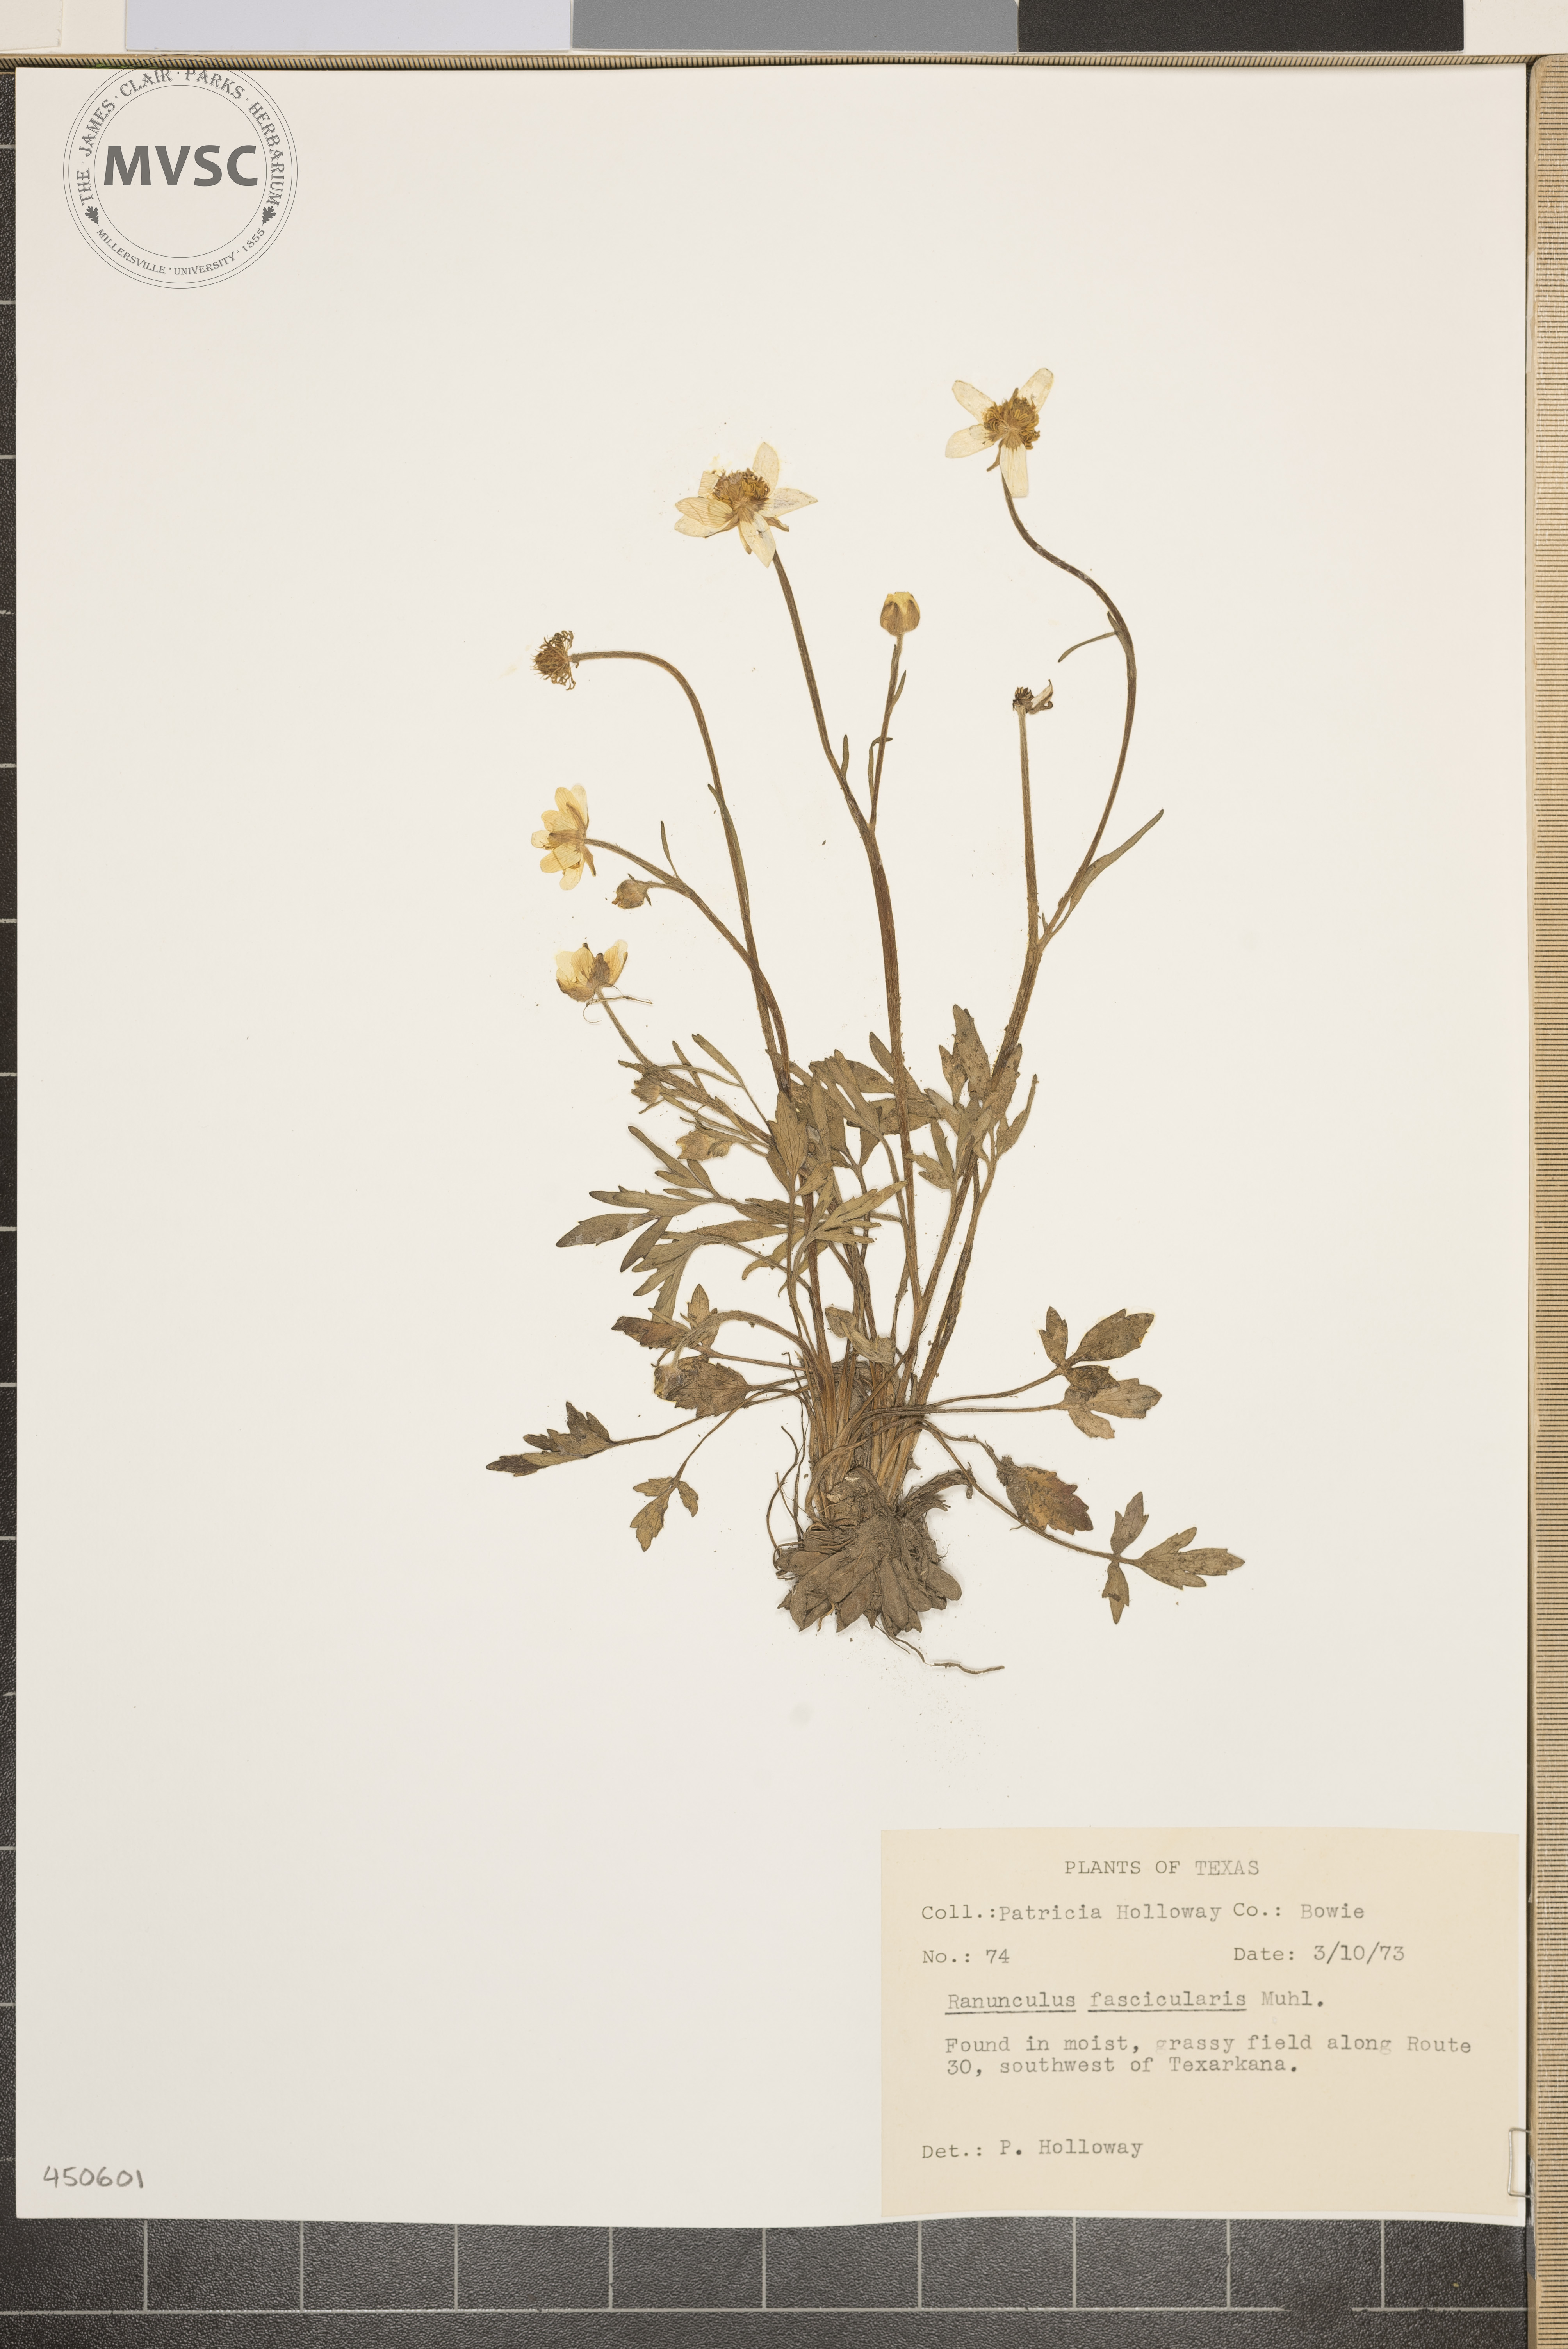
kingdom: Plantae
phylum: Tracheophyta
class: Magnoliopsida
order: Ranunculales
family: Ranunculaceae
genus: Ranunculus
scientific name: Ranunculus fascicularis
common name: Early buttercup
